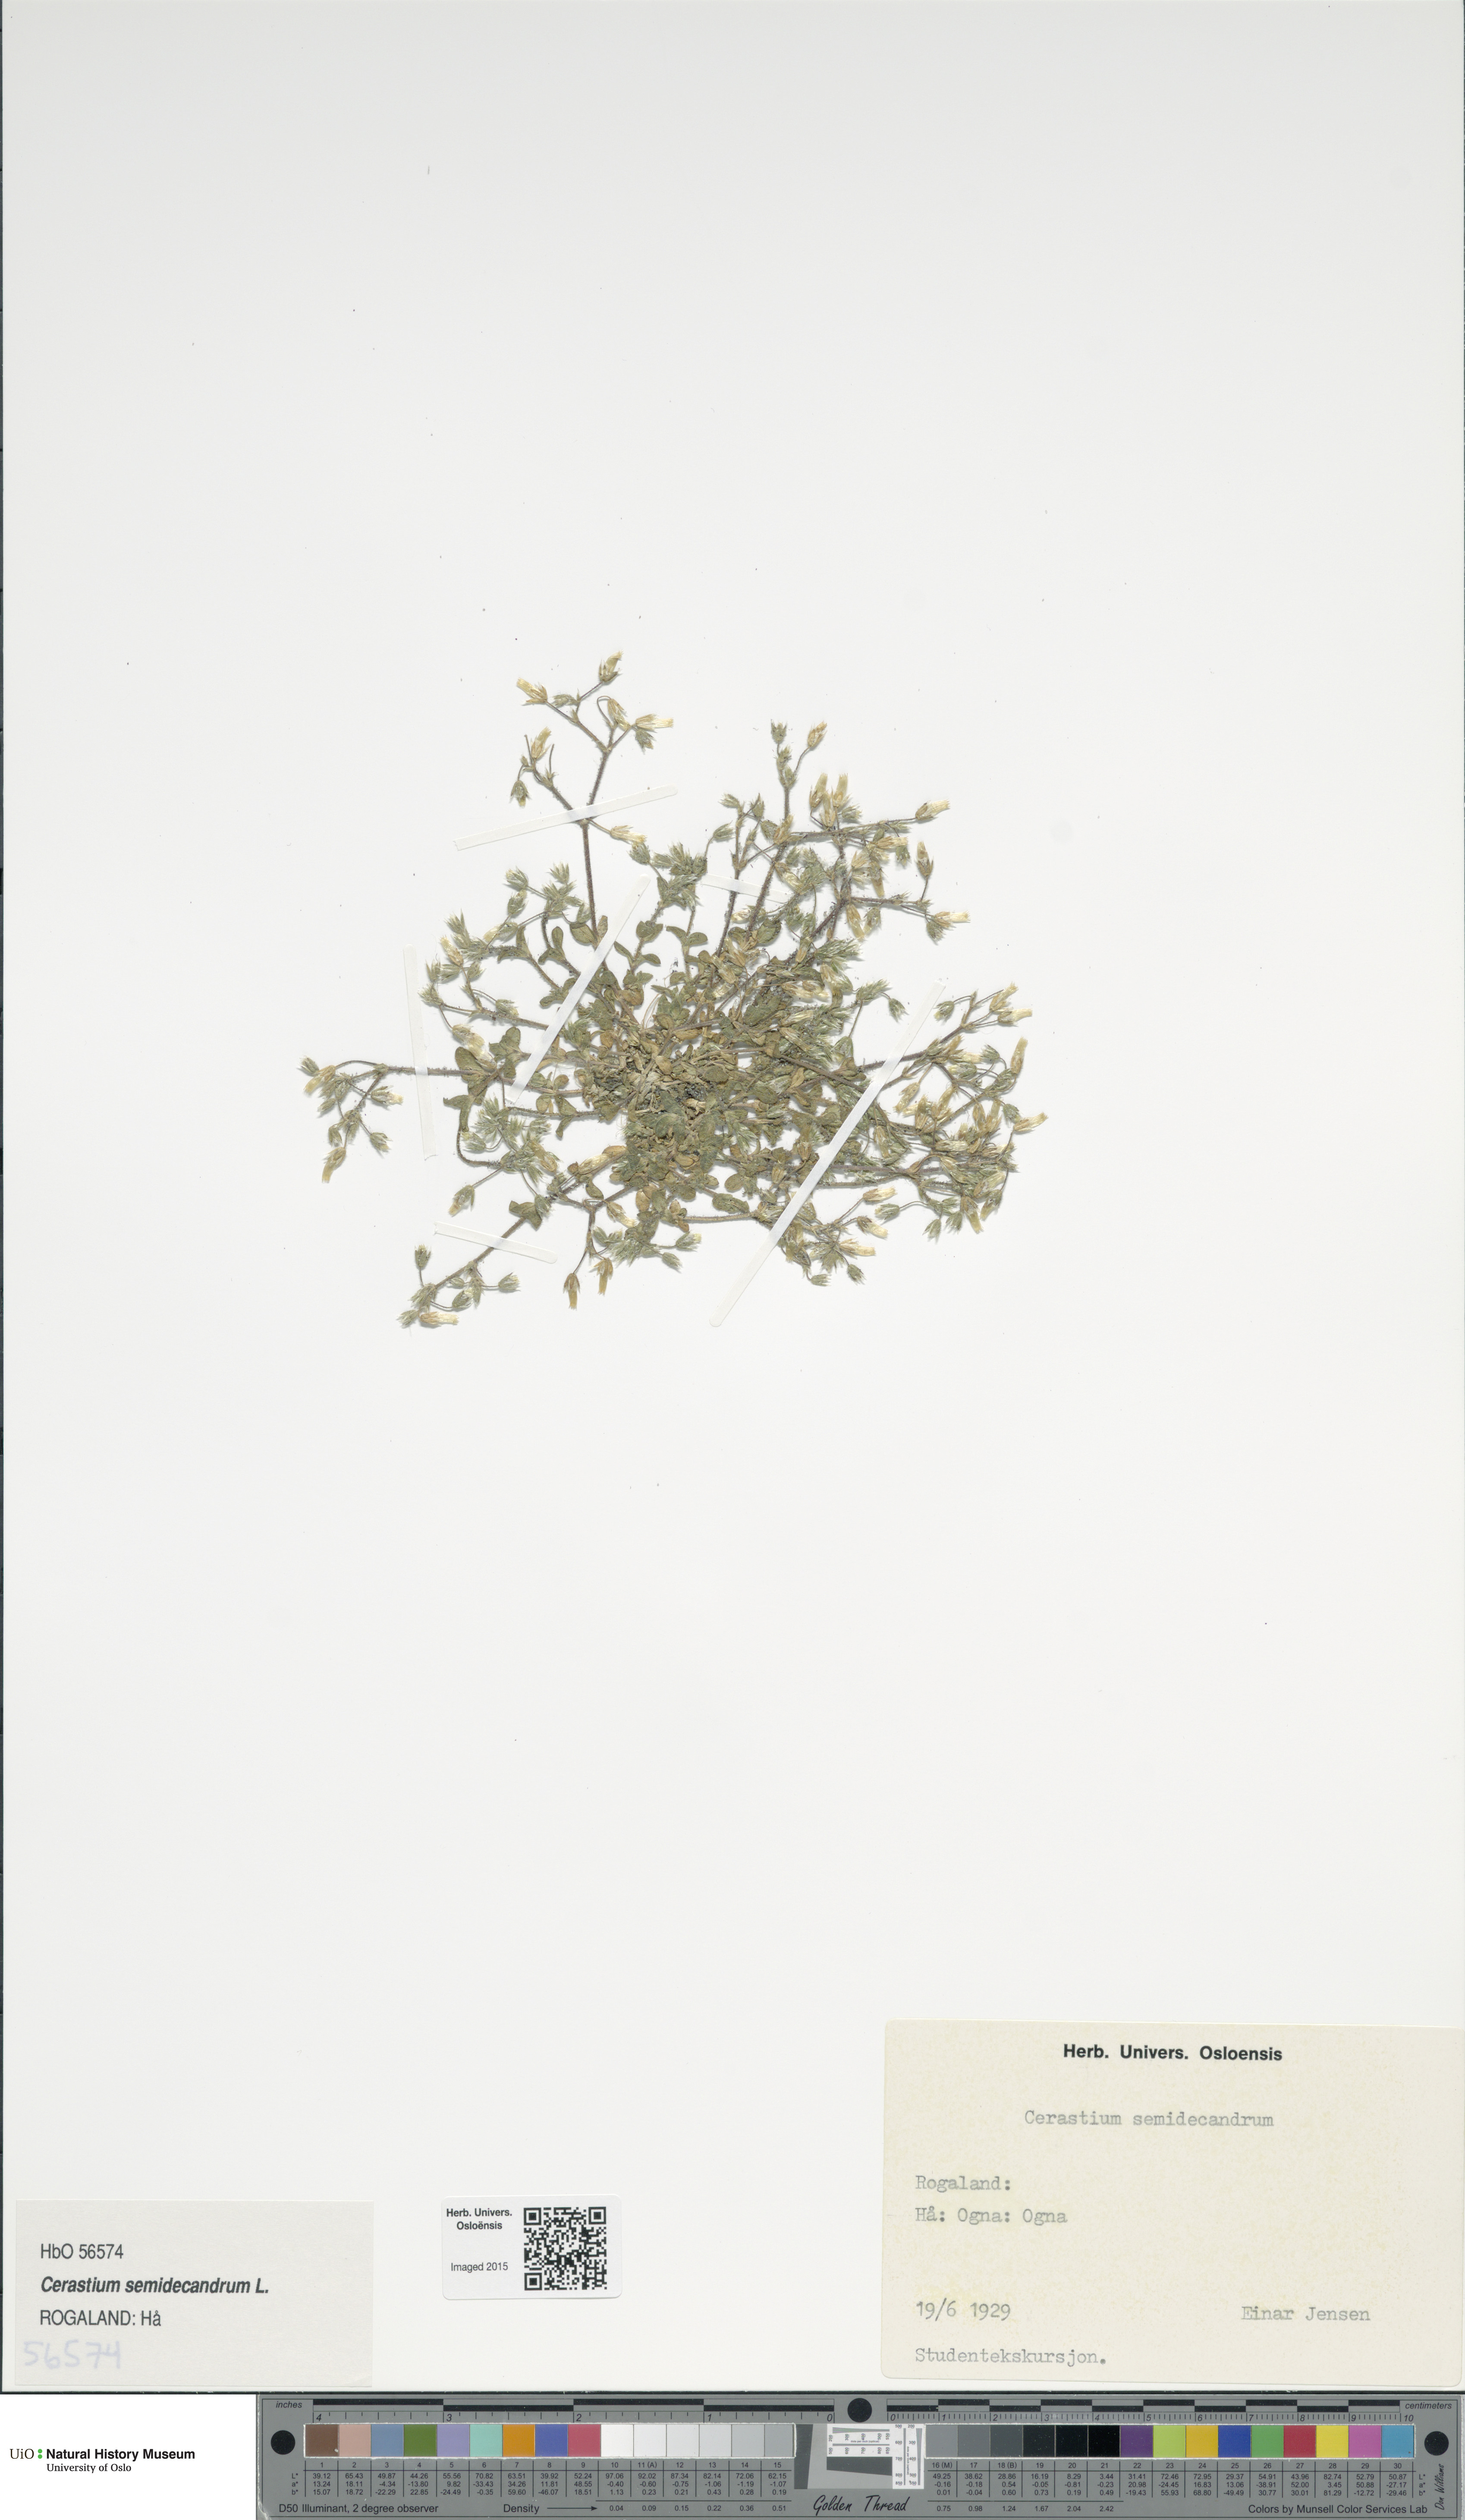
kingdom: Plantae
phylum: Tracheophyta
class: Magnoliopsida
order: Caryophyllales
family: Caryophyllaceae
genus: Cerastium
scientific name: Cerastium semidecandrum
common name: Little mouse-ear
